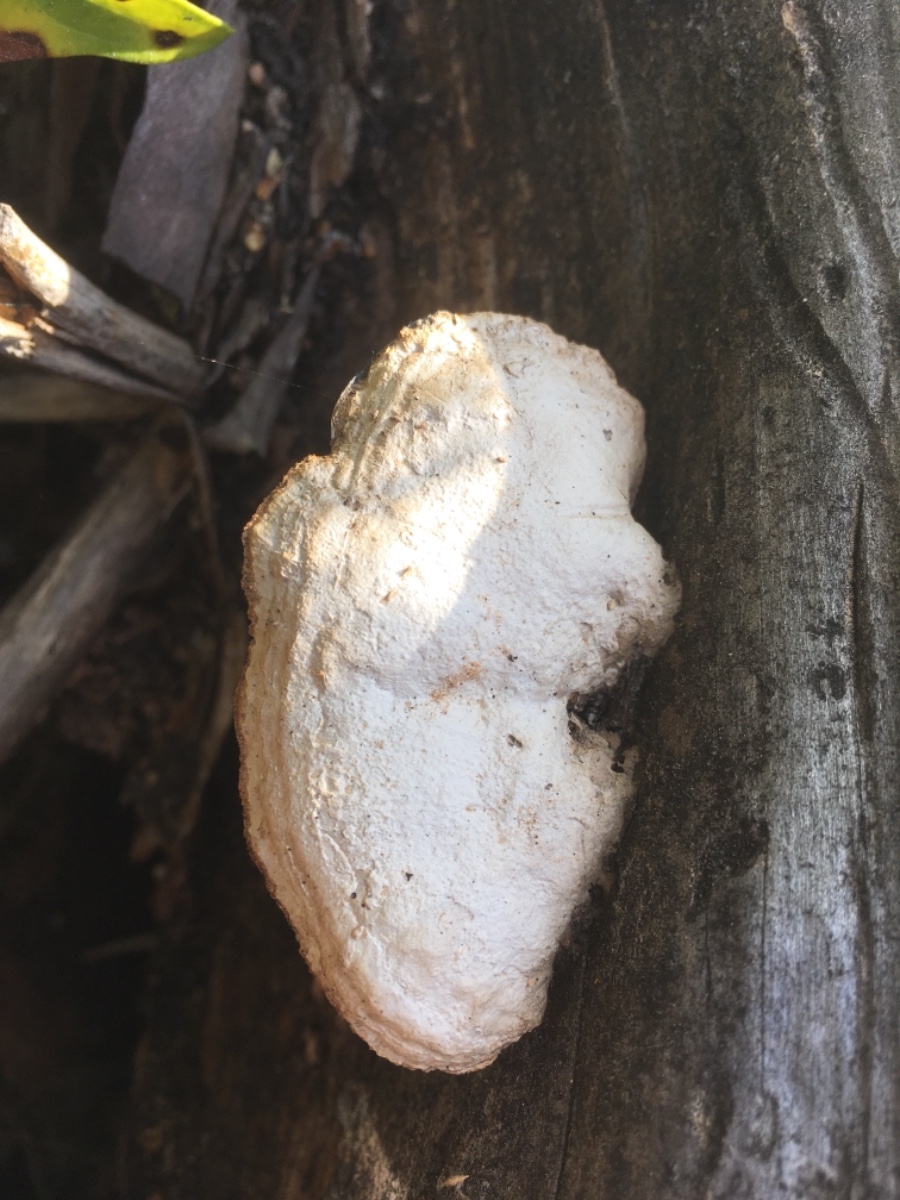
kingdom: Fungi
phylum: Basidiomycota
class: Agaricomycetes
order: Polyporales
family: Polyporaceae
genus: Trametes
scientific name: Trametes
